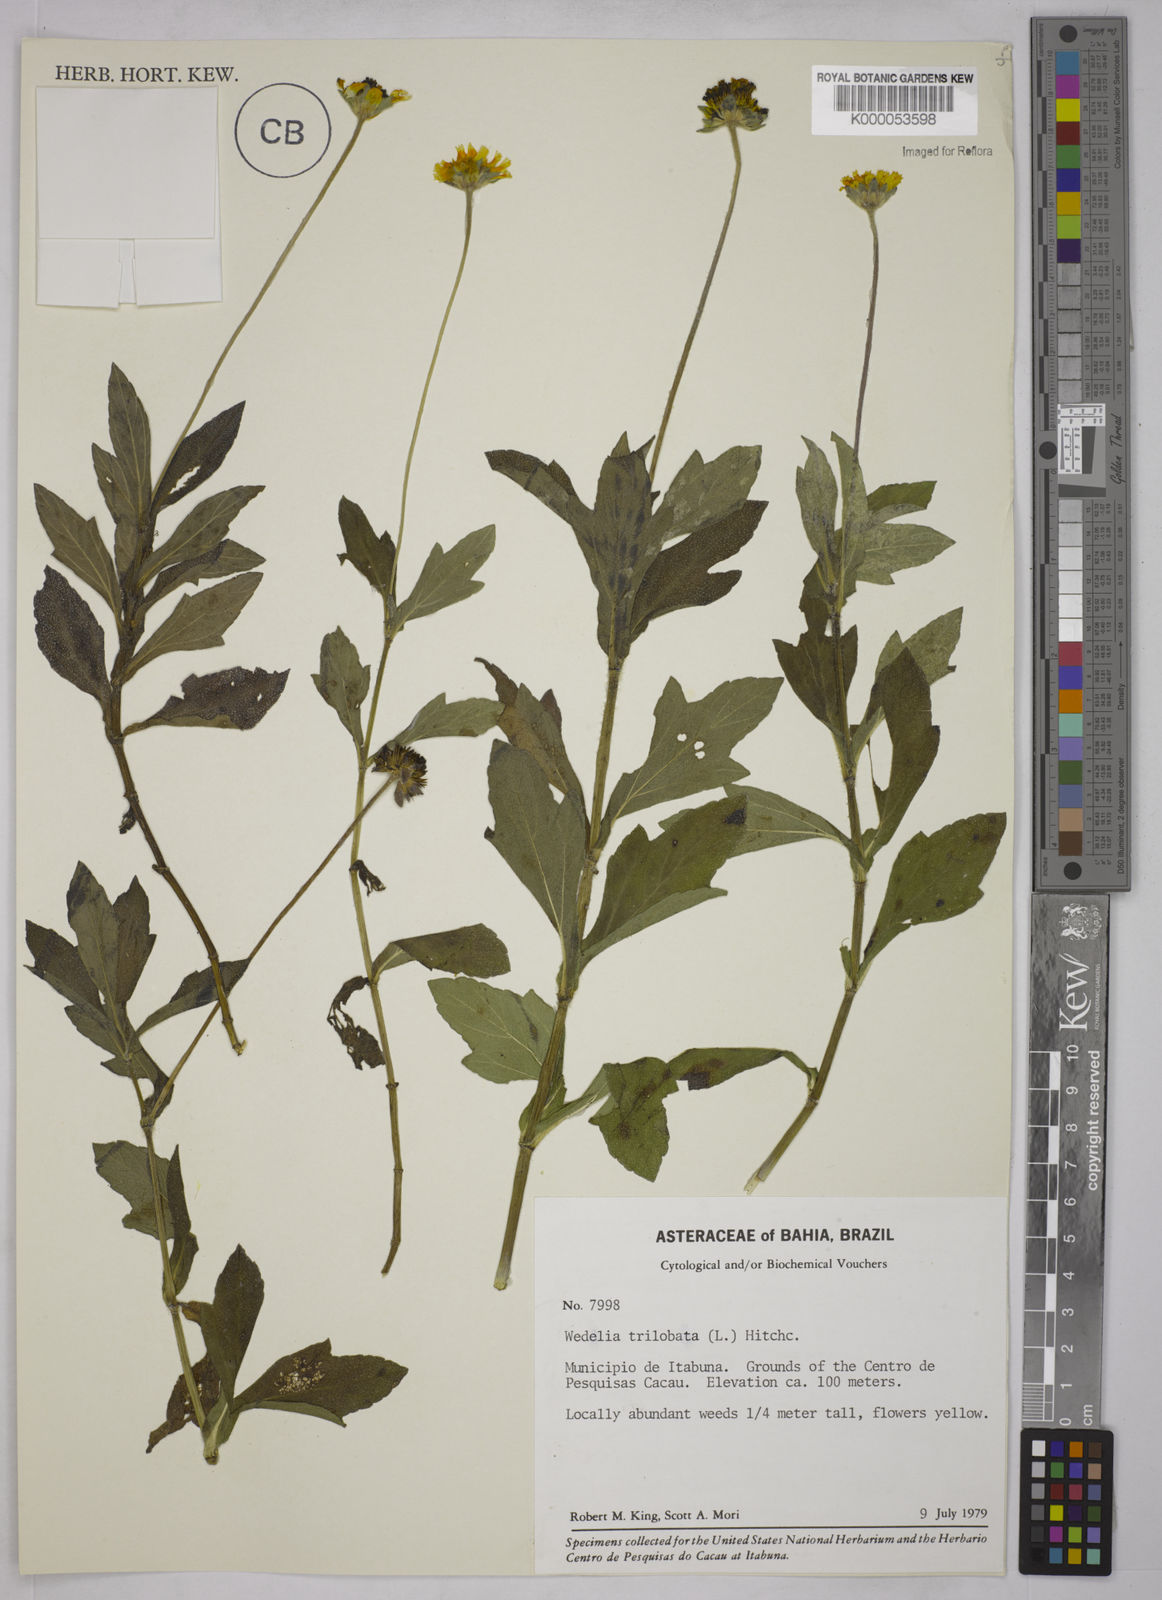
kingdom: Plantae
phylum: Tracheophyta
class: Magnoliopsida
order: Asterales
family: Asteraceae
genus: Sphagneticola
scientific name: Sphagneticola trilobata
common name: Bay biscayne creeping-oxeye
